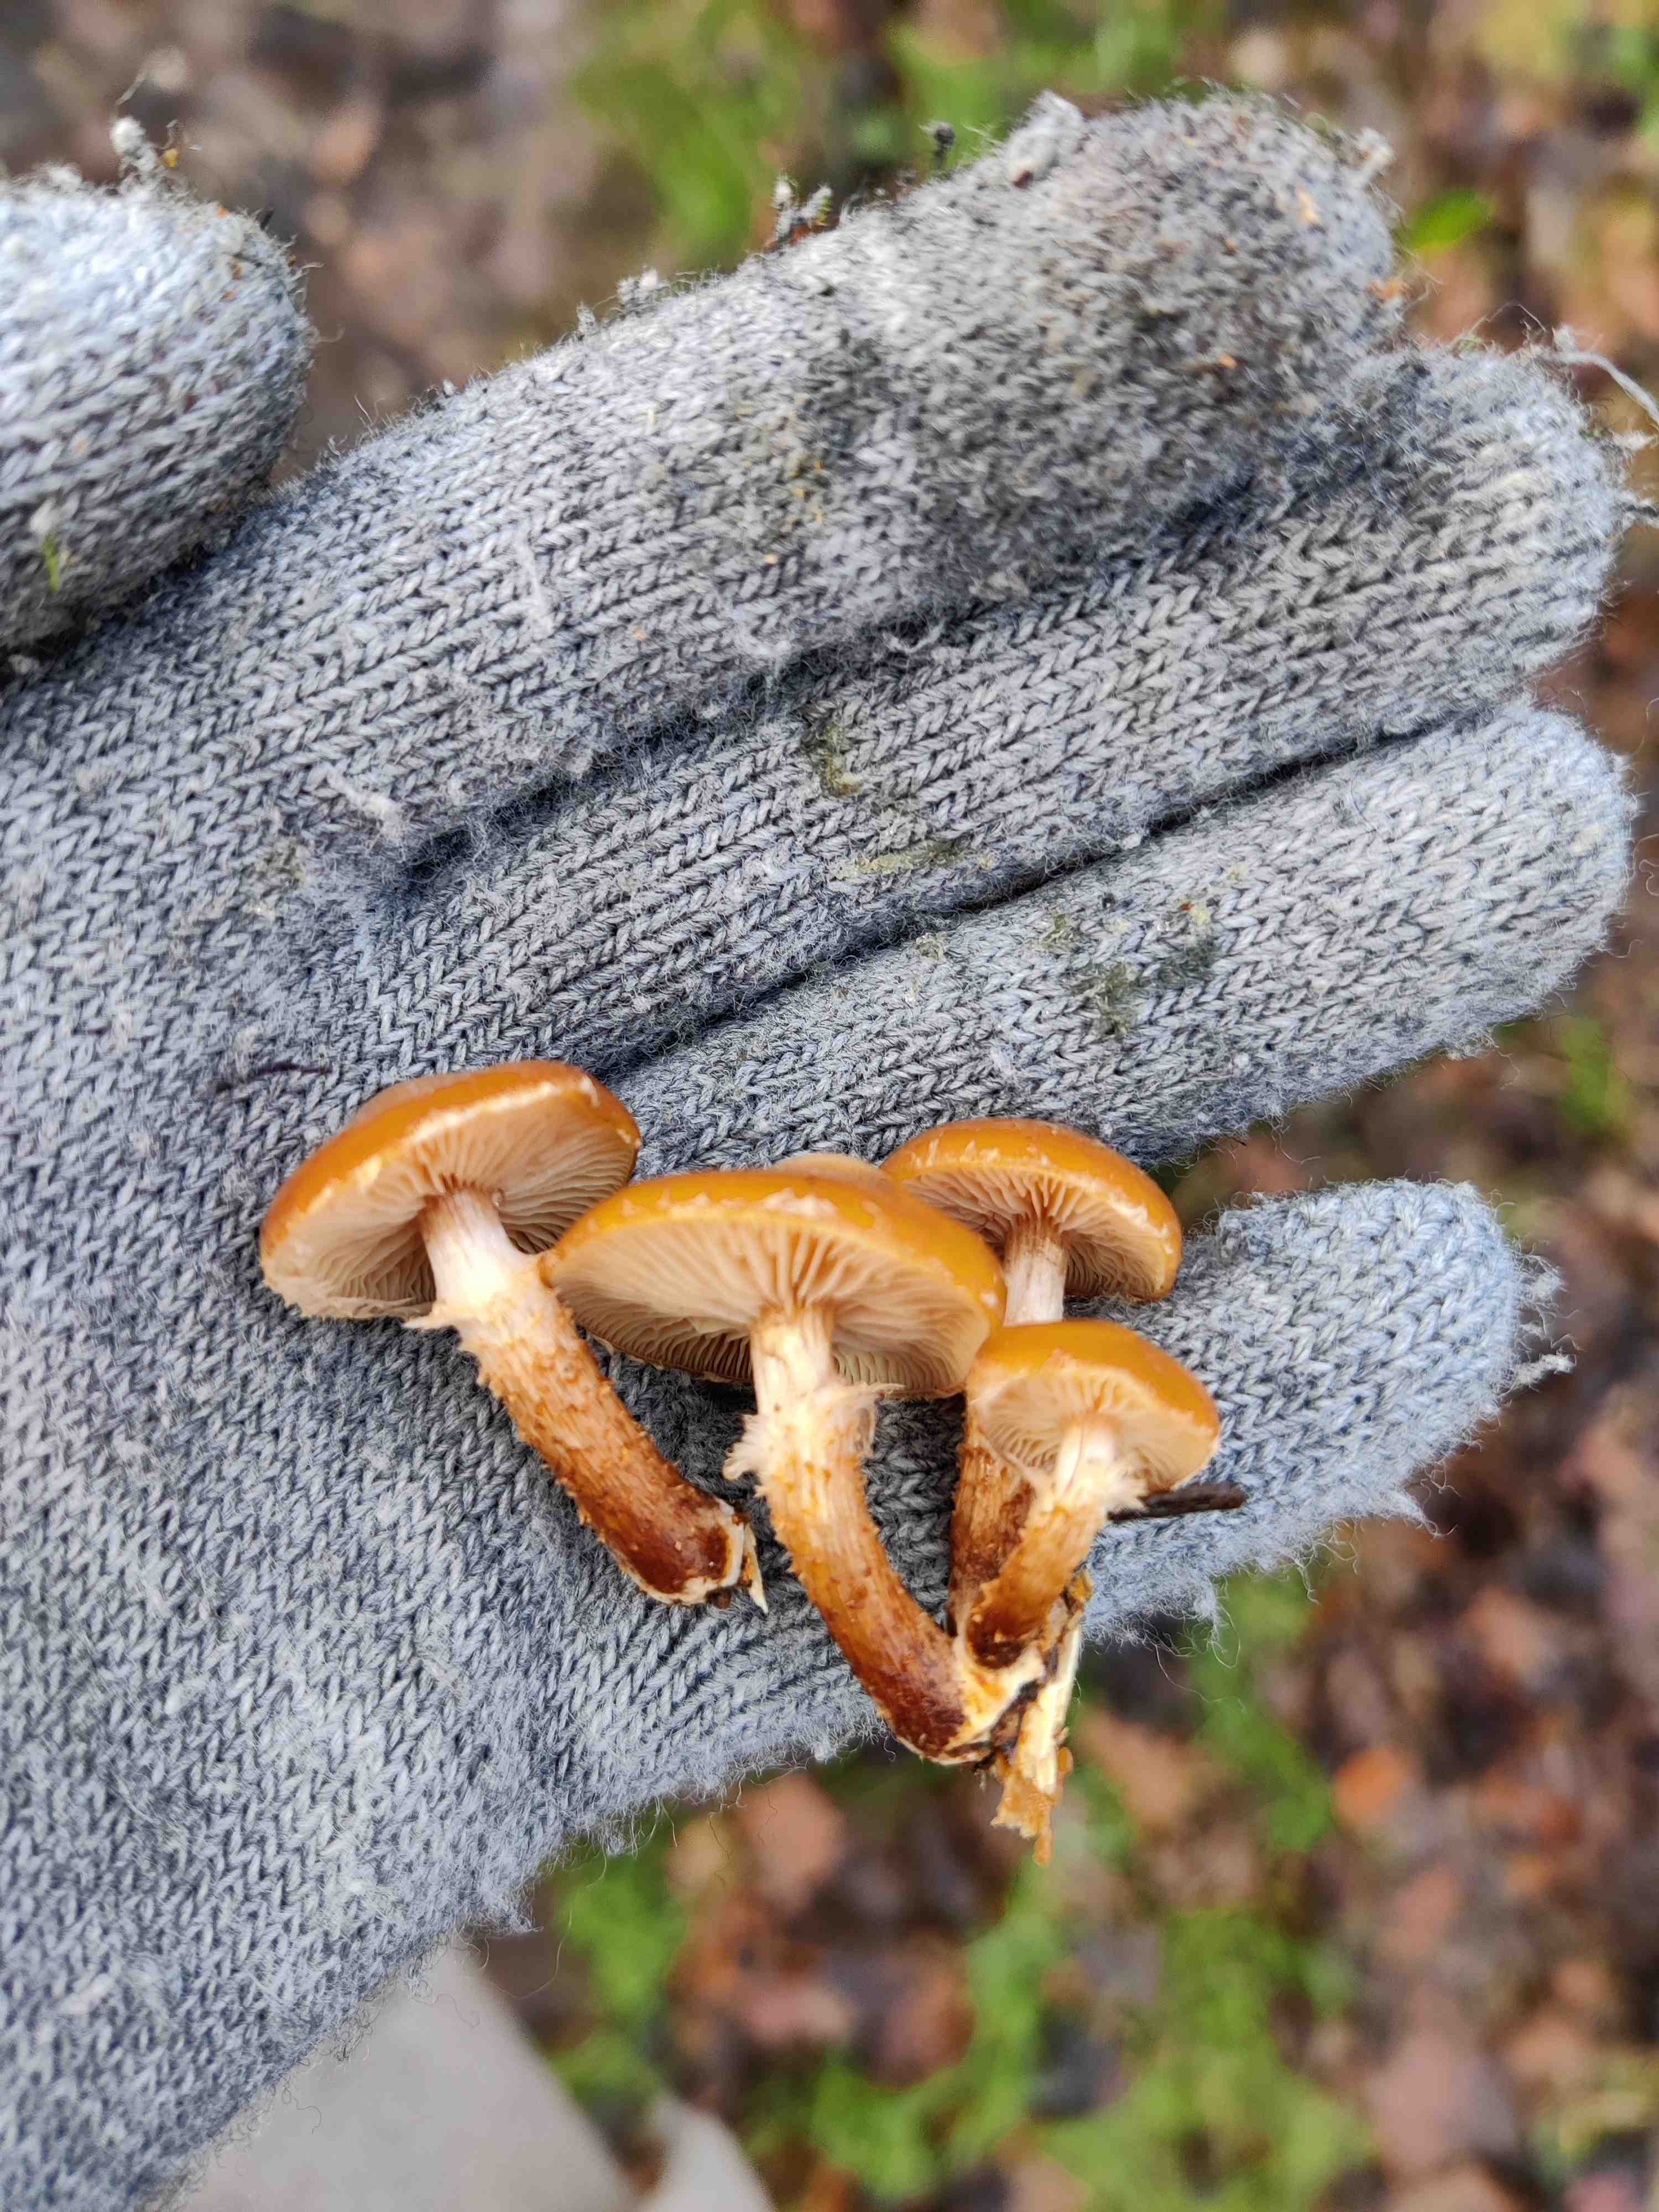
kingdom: Fungi
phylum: Basidiomycota
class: Agaricomycetes
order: Agaricales
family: Strophariaceae
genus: Kuehneromyces
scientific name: Kuehneromyces mutabilis
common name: foranderlig skælhat
